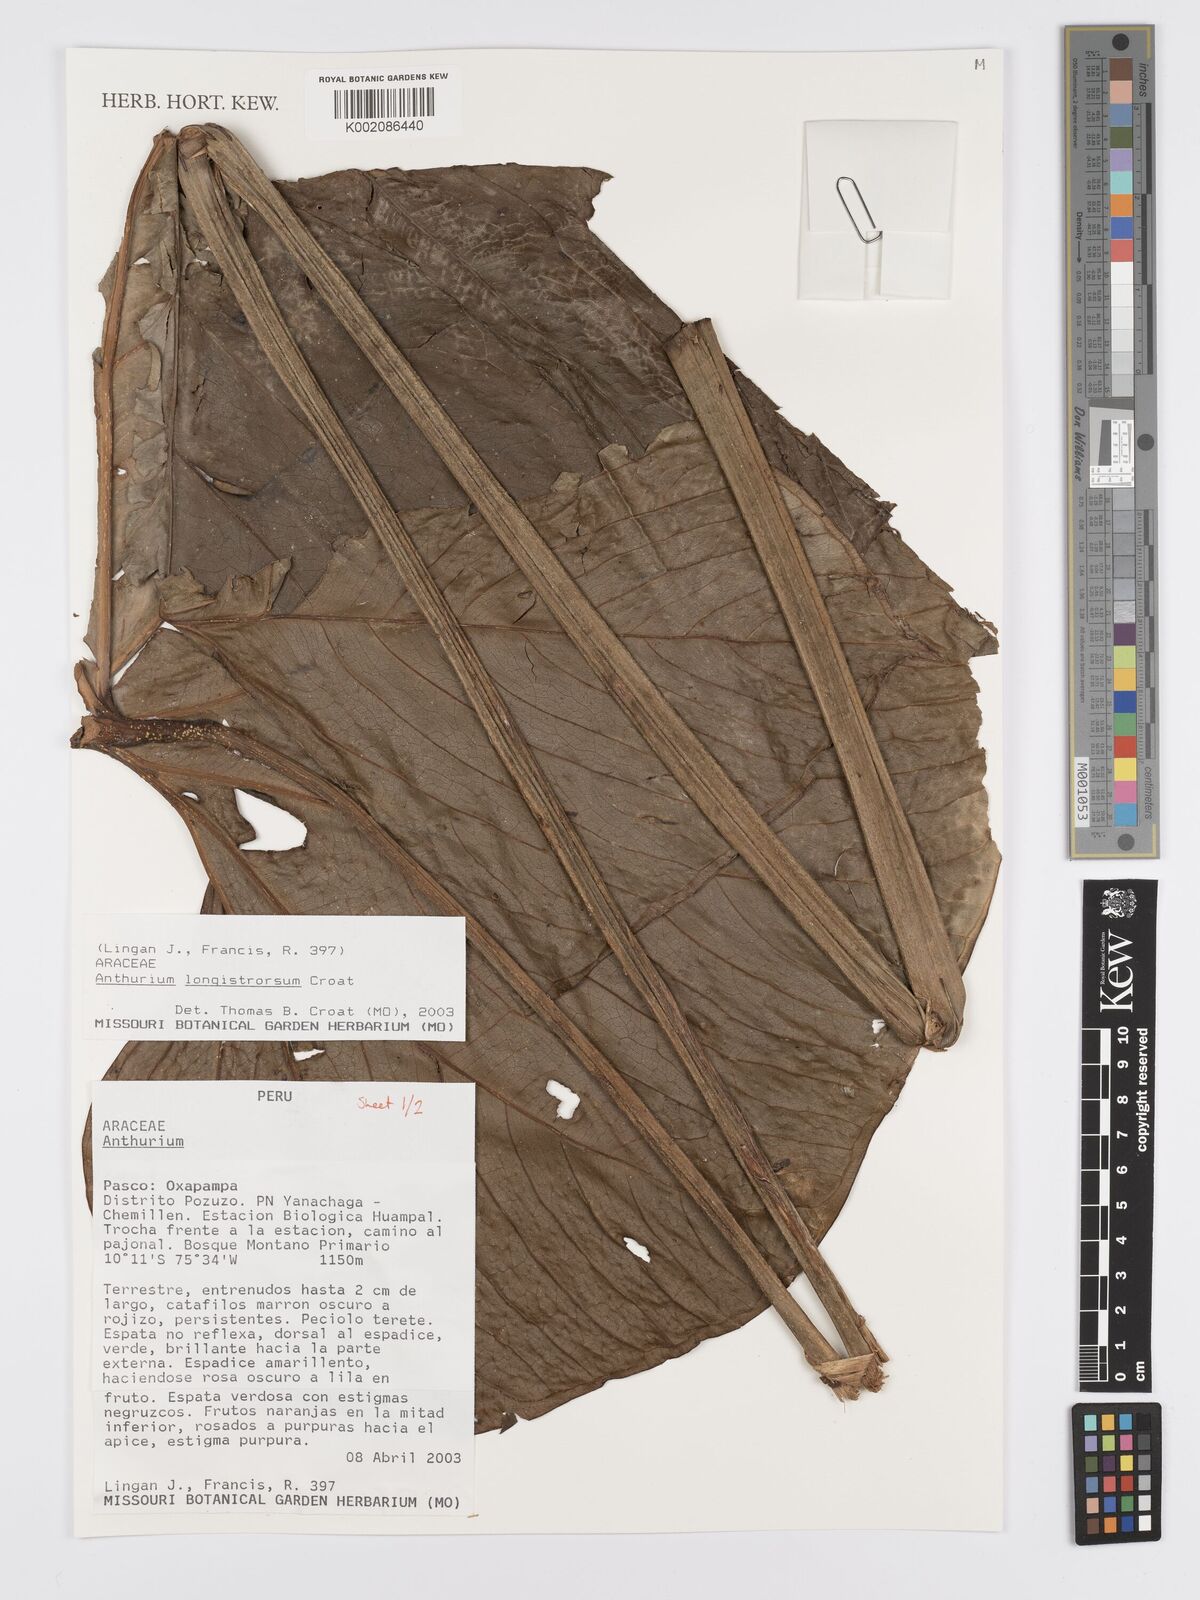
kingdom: Plantae
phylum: Tracheophyta
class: Liliopsida
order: Alismatales
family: Araceae
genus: Anthurium
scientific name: Anthurium
